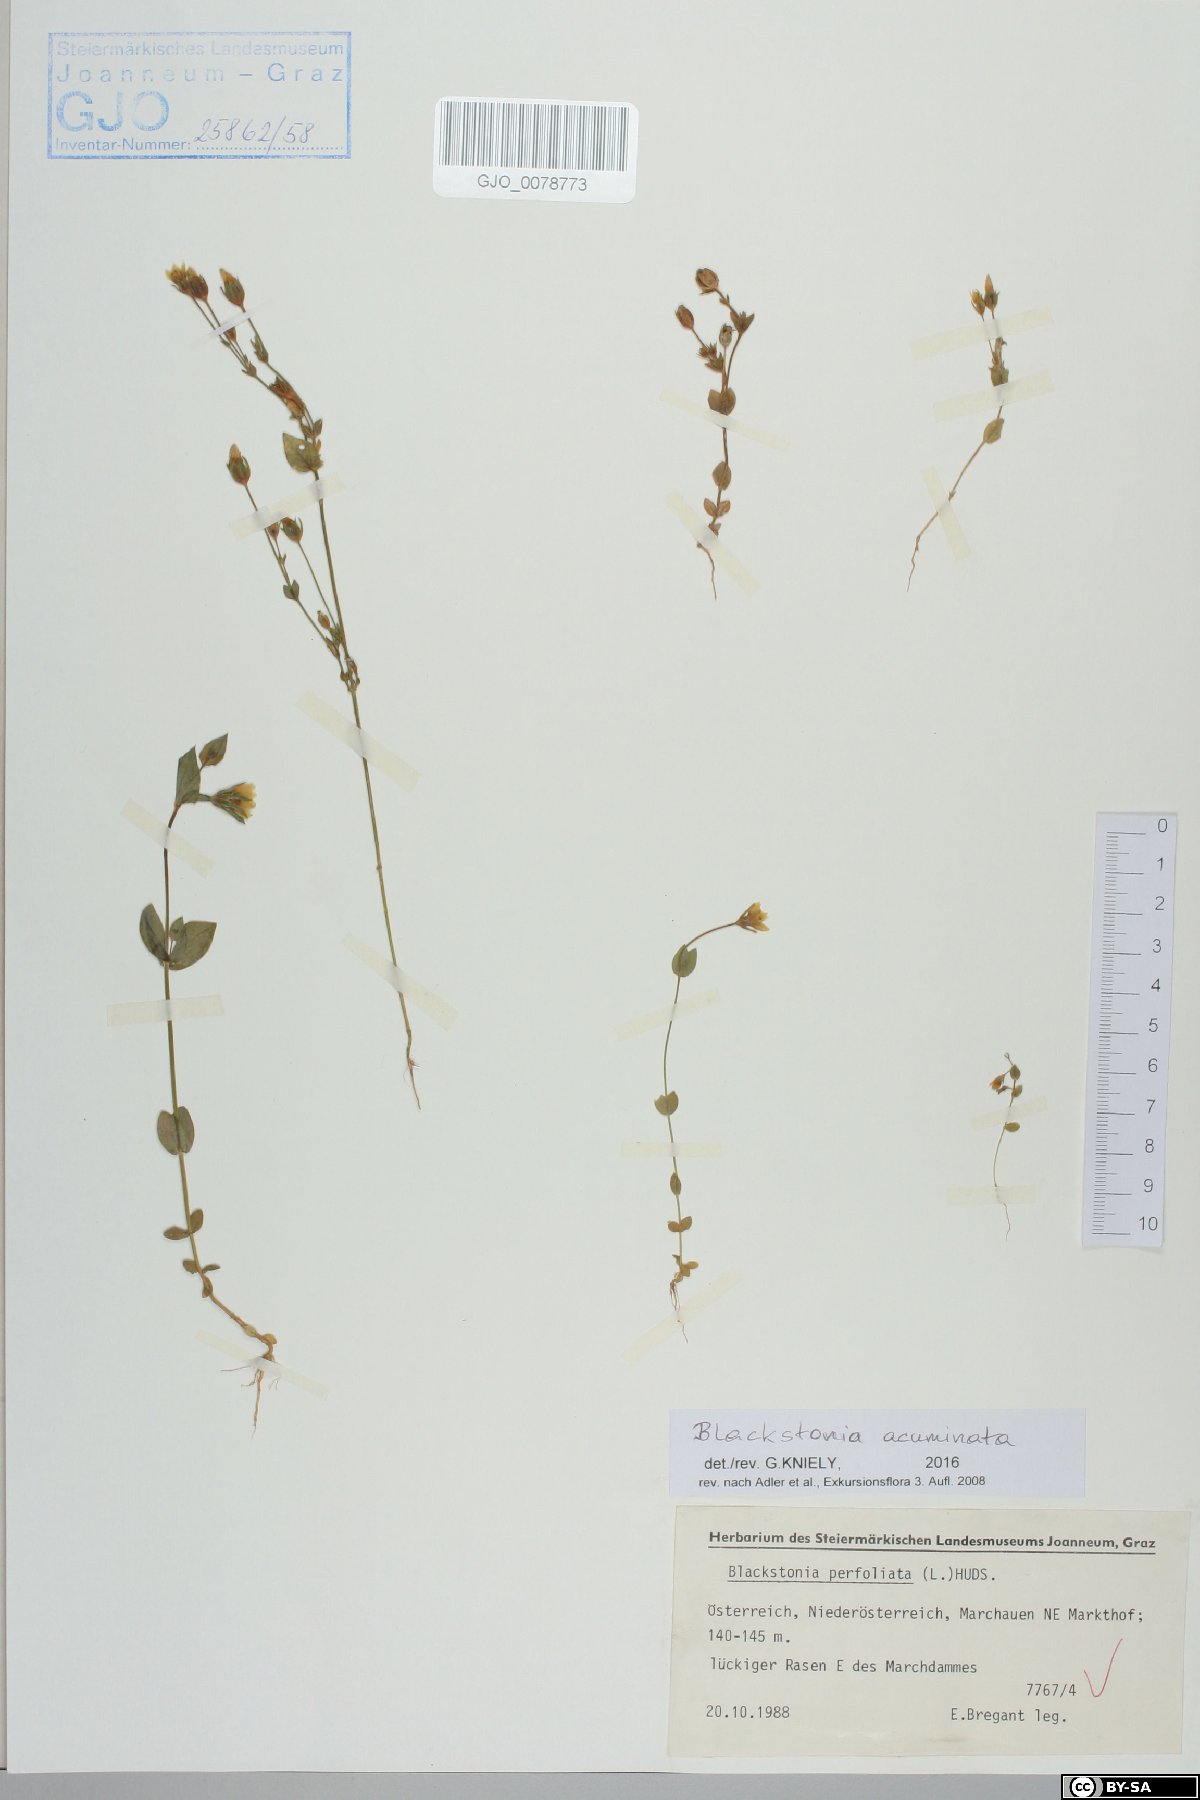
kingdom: Plantae
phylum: Tracheophyta
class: Magnoliopsida
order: Gentianales
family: Gentianaceae
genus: Blackstonia
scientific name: Blackstonia acuminata
